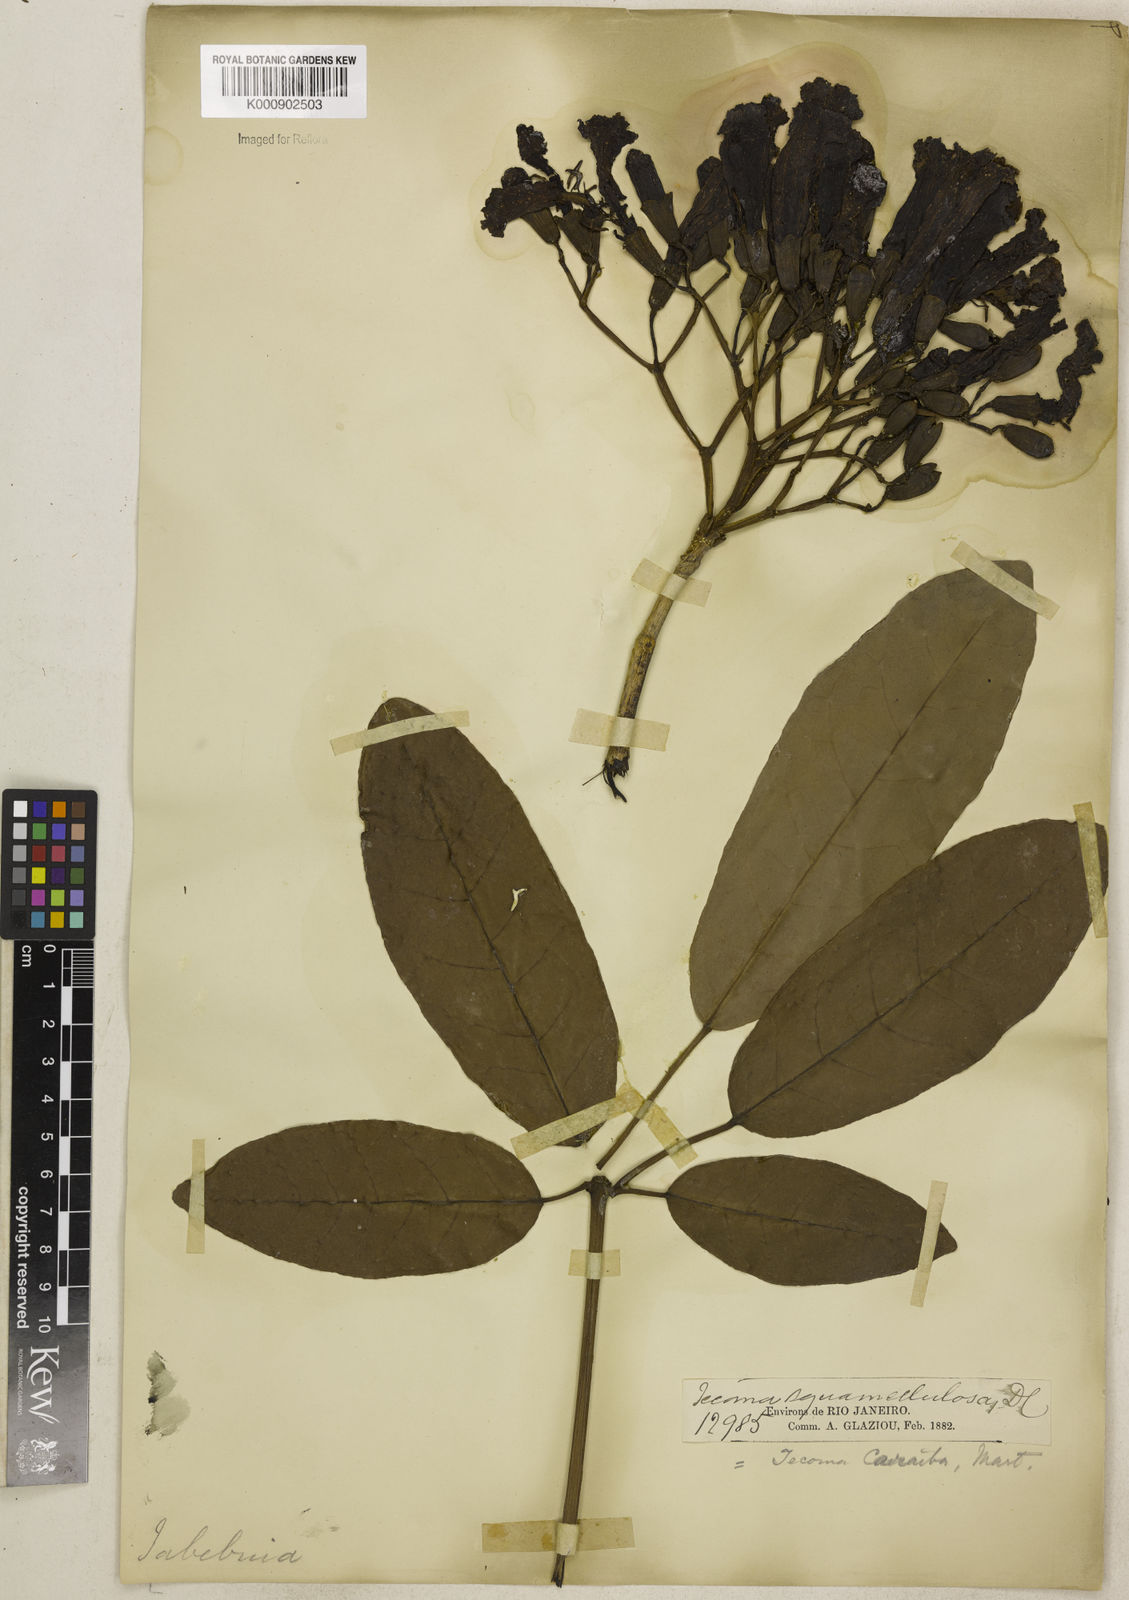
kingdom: Plantae
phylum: Tracheophyta
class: Magnoliopsida
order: Lamiales
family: Bignoniaceae
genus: Tabebuia
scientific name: Tabebuia aurea
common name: Caribbean trumpet-tree
